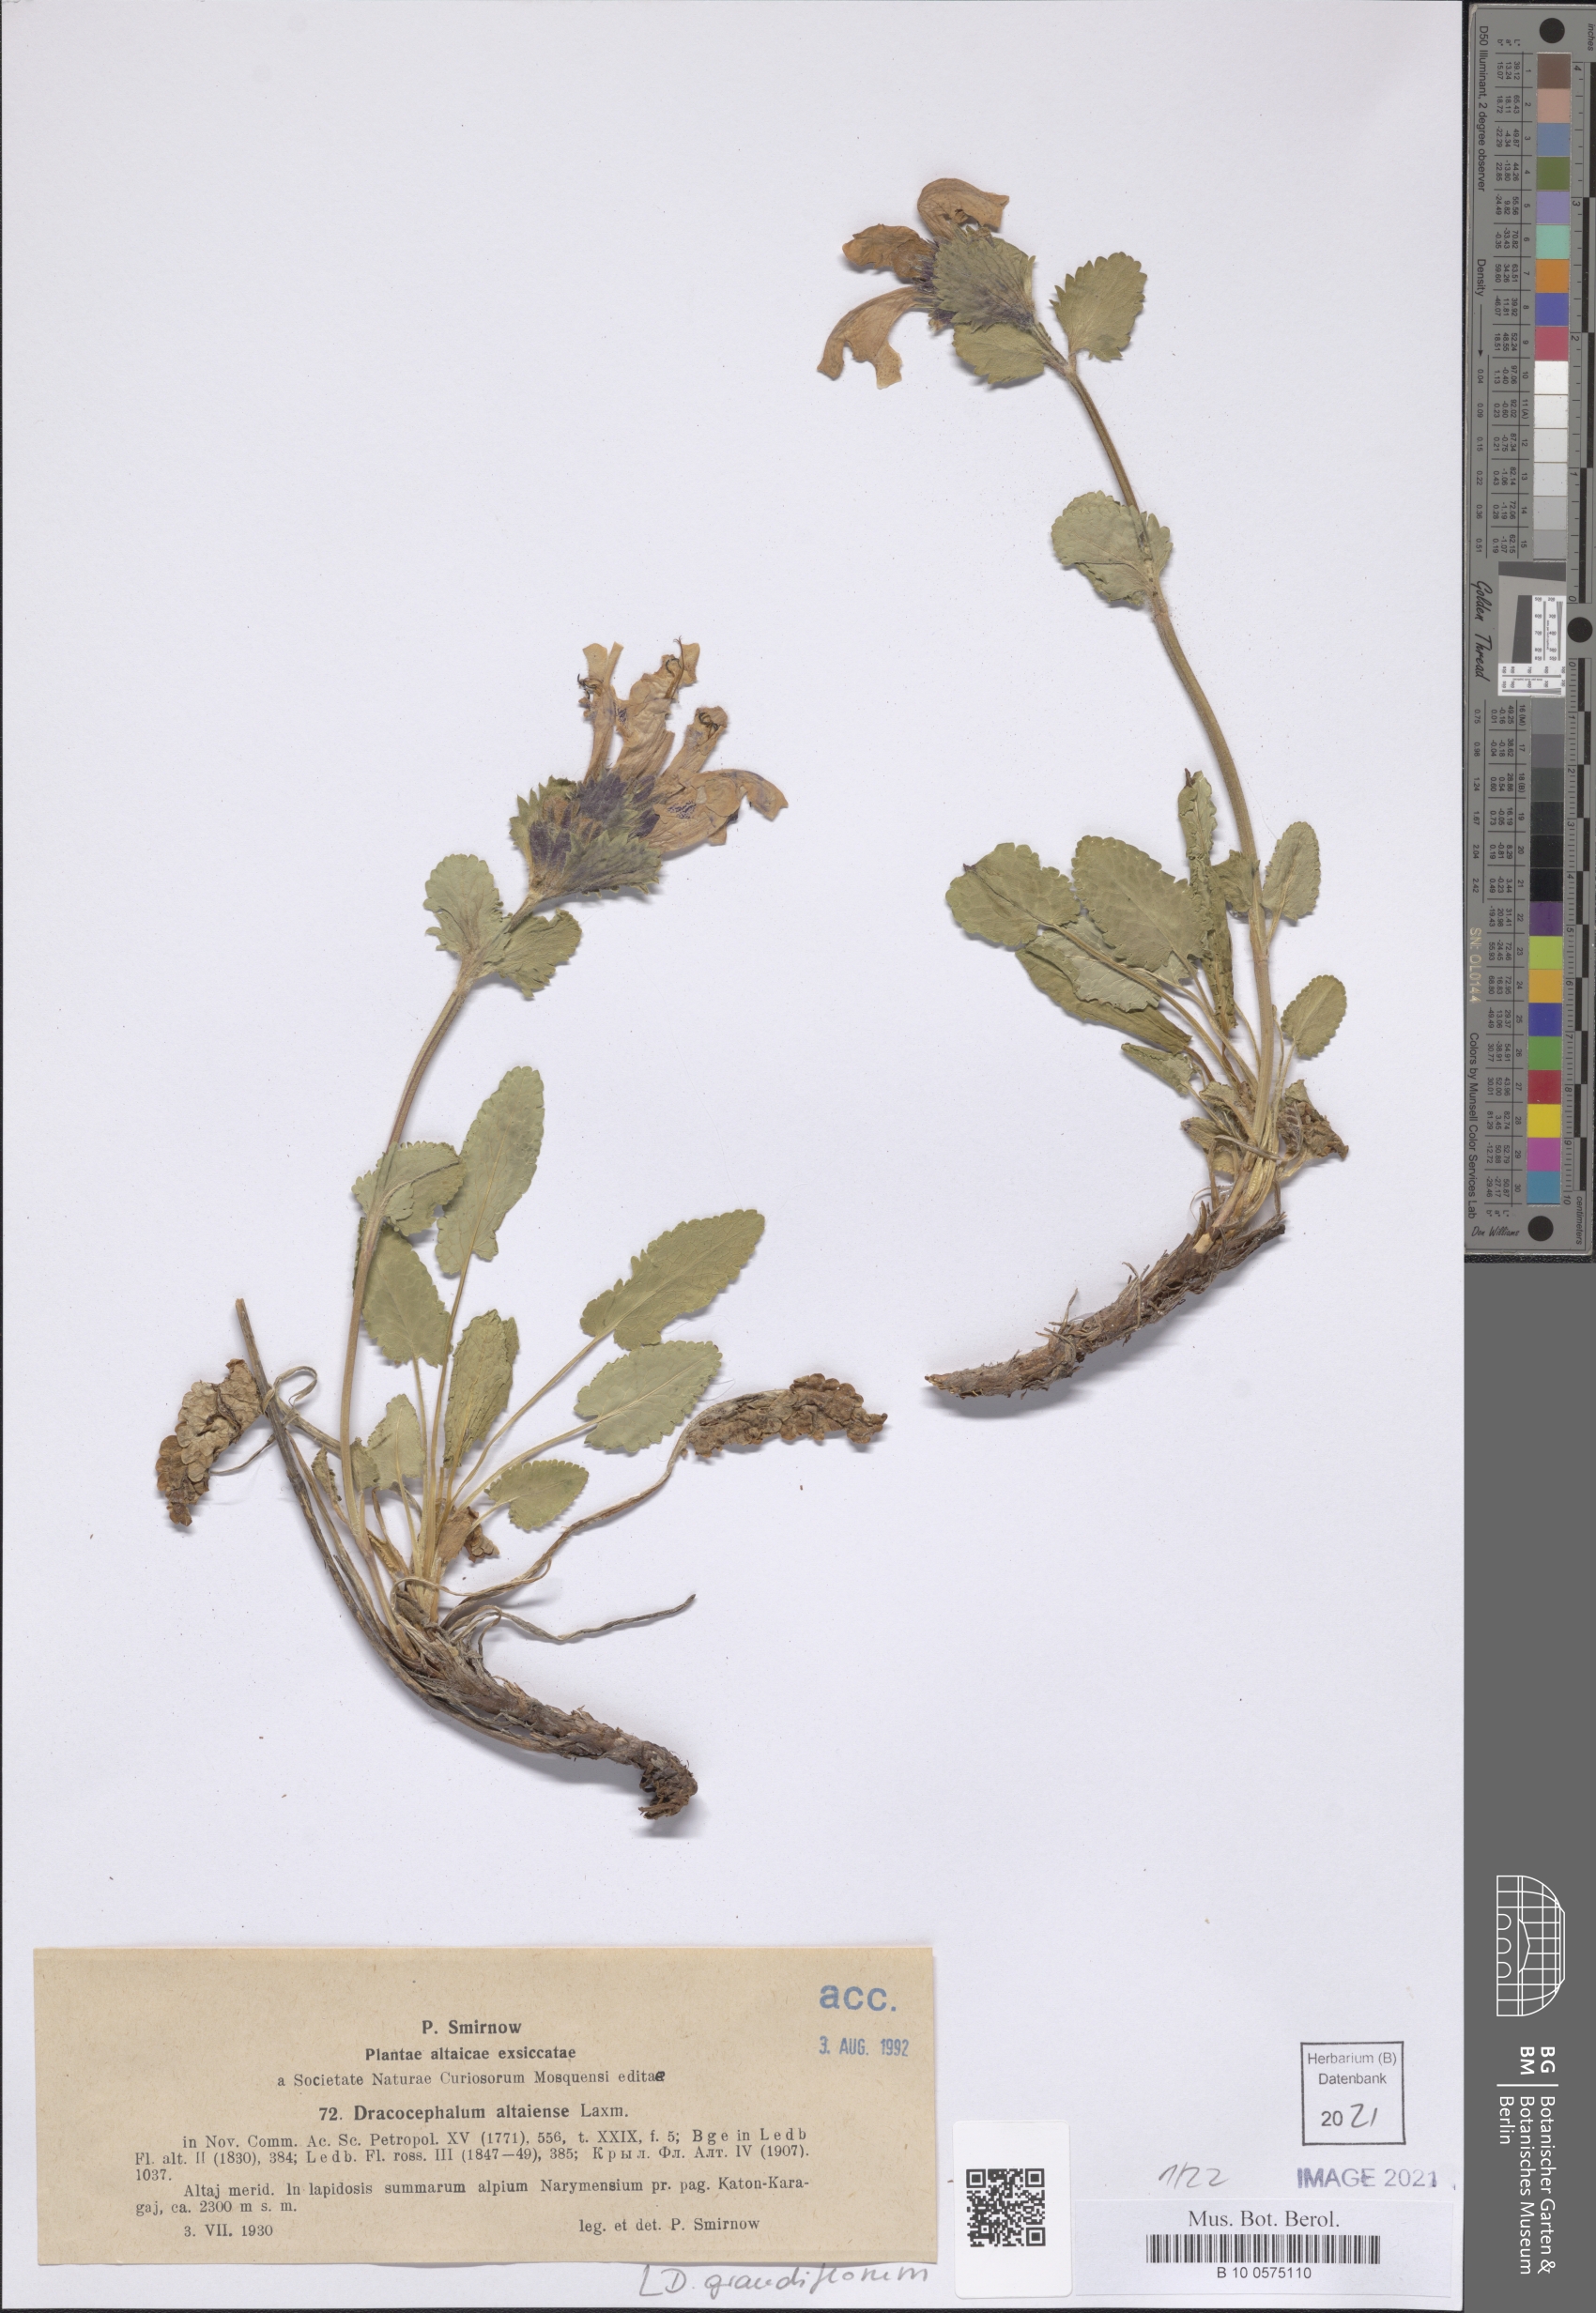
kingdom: Plantae
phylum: Tracheophyta
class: Magnoliopsida
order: Lamiales
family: Lamiaceae
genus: Dracocephalum
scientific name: Dracocephalum grandiflorum
